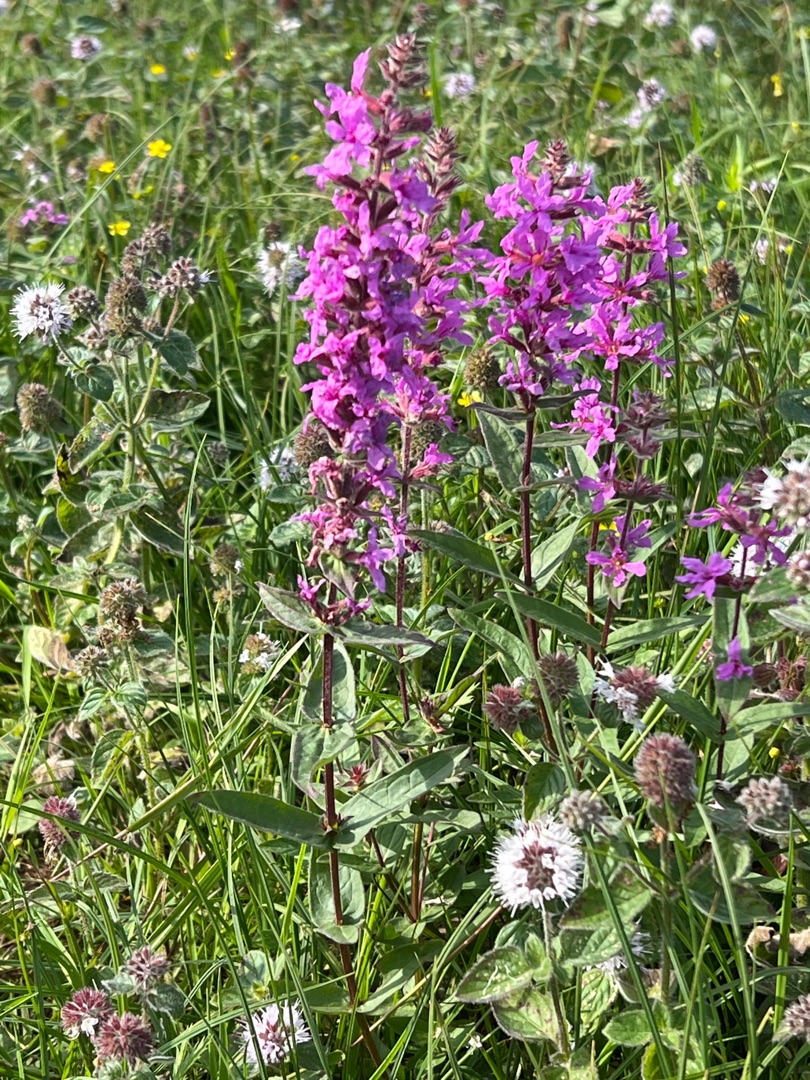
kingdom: Plantae
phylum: Tracheophyta
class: Magnoliopsida
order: Myrtales
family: Lythraceae
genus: Lythrum
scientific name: Lythrum salicaria
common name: Kattehale
